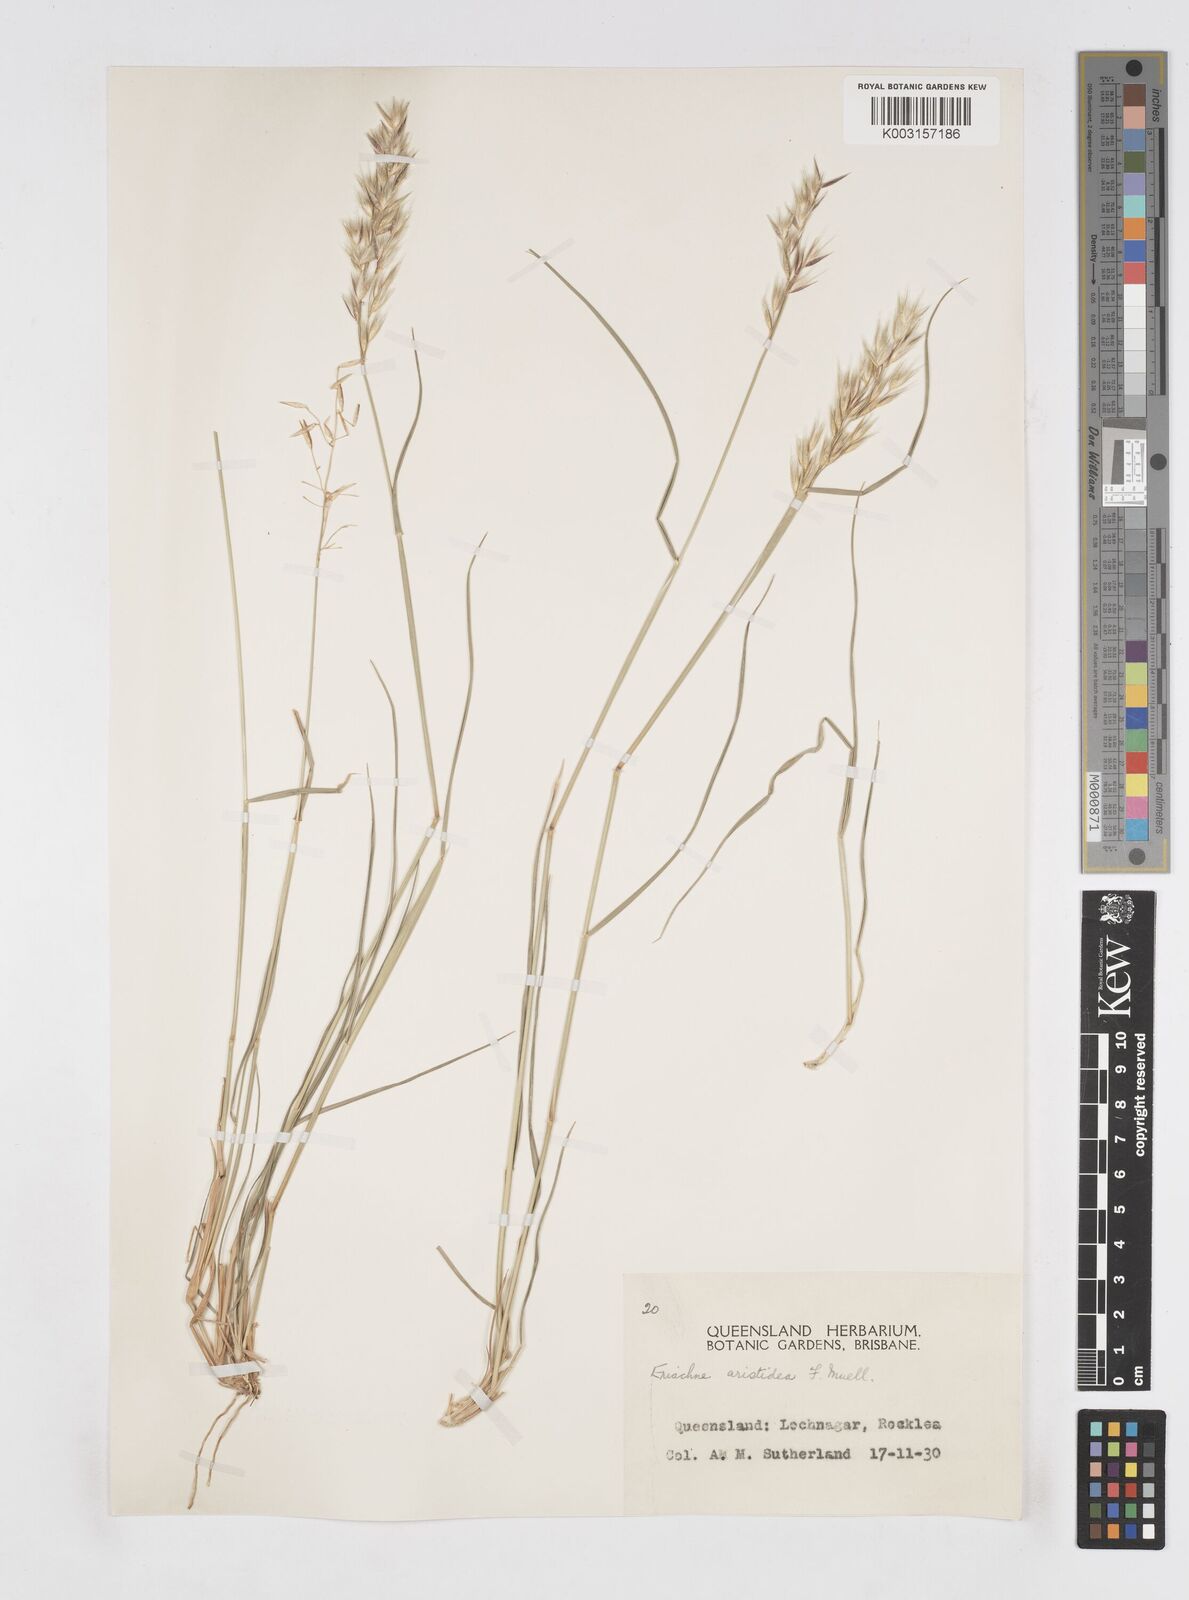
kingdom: Plantae
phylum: Tracheophyta
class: Liliopsida
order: Poales
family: Poaceae
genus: Eriachne
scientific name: Eriachne aristidea
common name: Three-awn wanderrie grass
